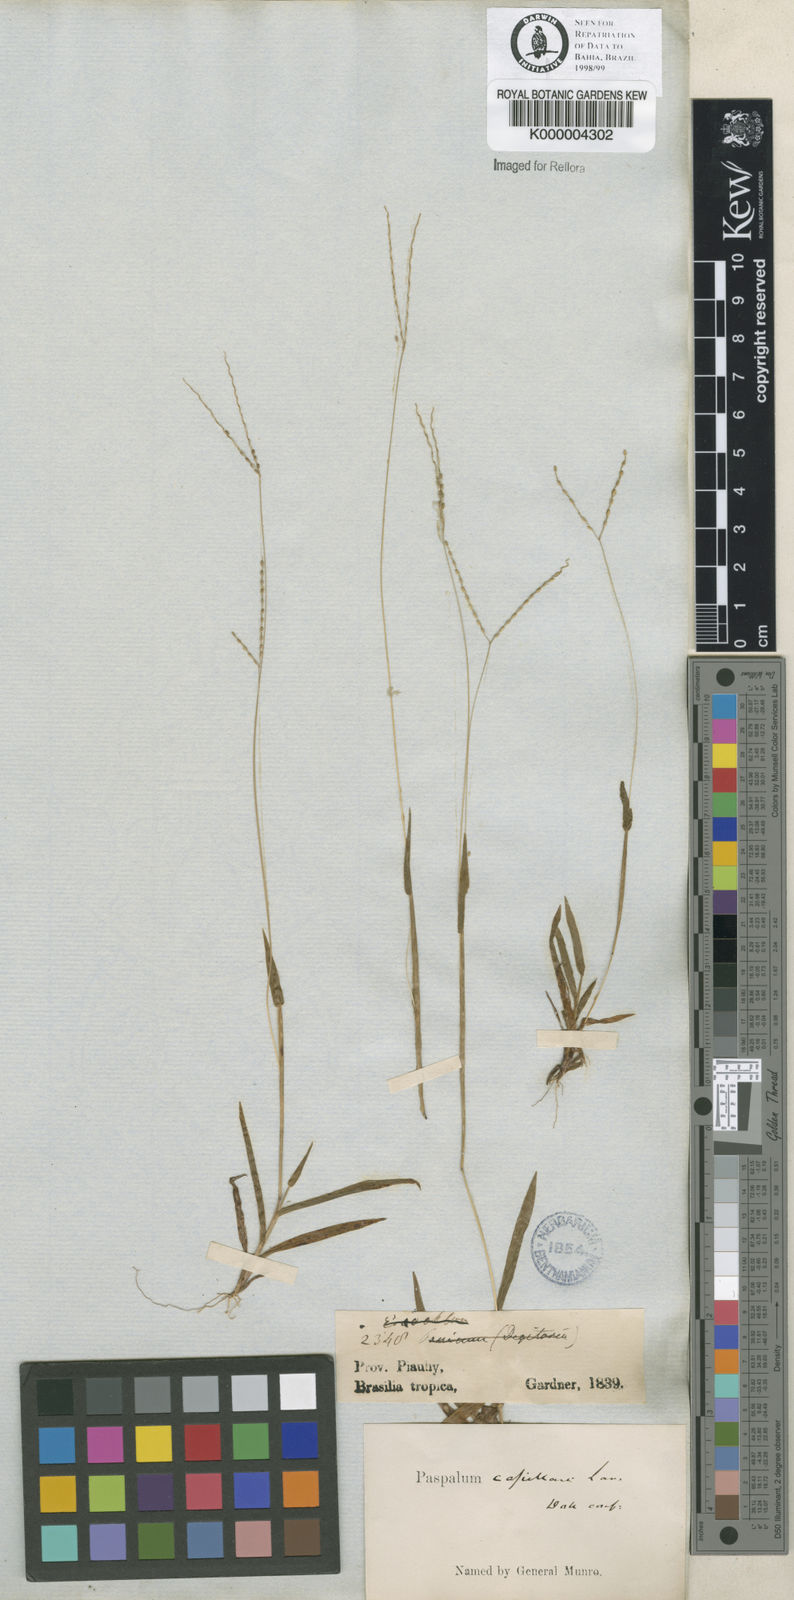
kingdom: Plantae
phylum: Tracheophyta
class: Liliopsida
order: Poales
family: Poaceae
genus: Axonopus
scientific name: Axonopus capillaris
